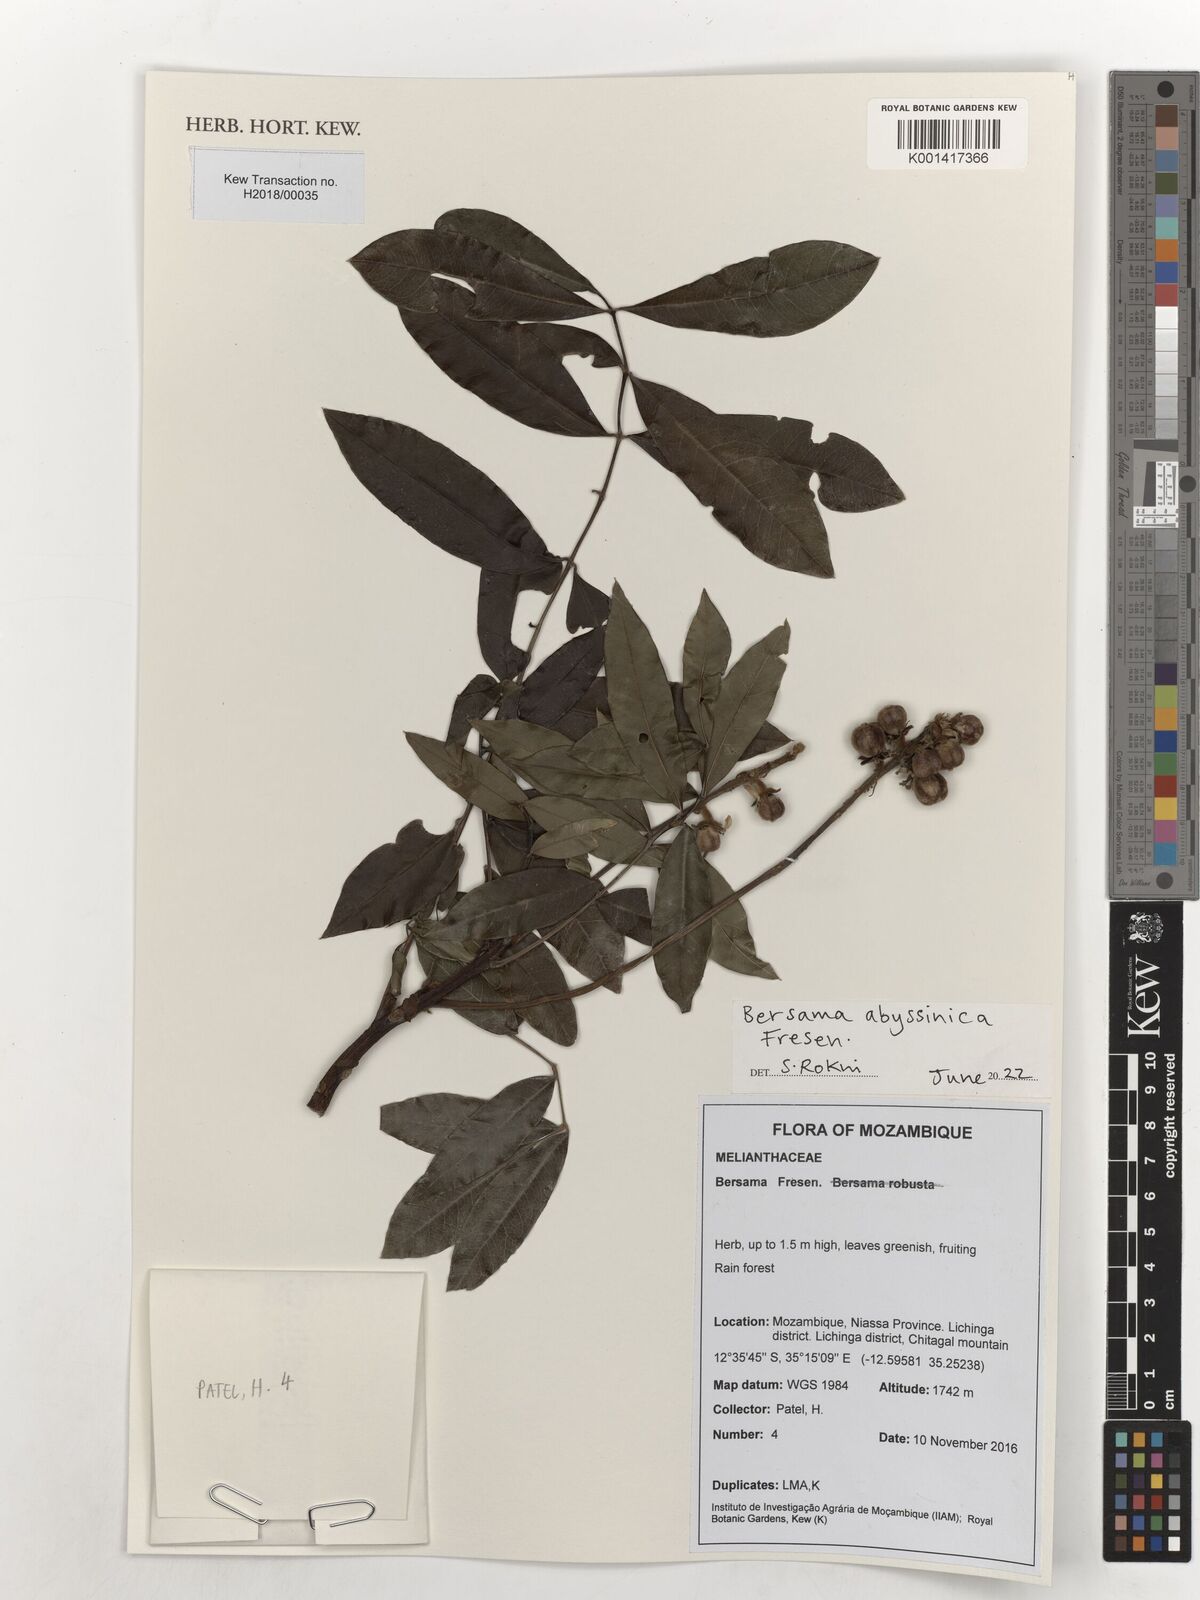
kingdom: Plantae
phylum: Tracheophyta
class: Magnoliopsida
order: Geraniales
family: Melianthaceae
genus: Bersama
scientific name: Bersama abyssinica
